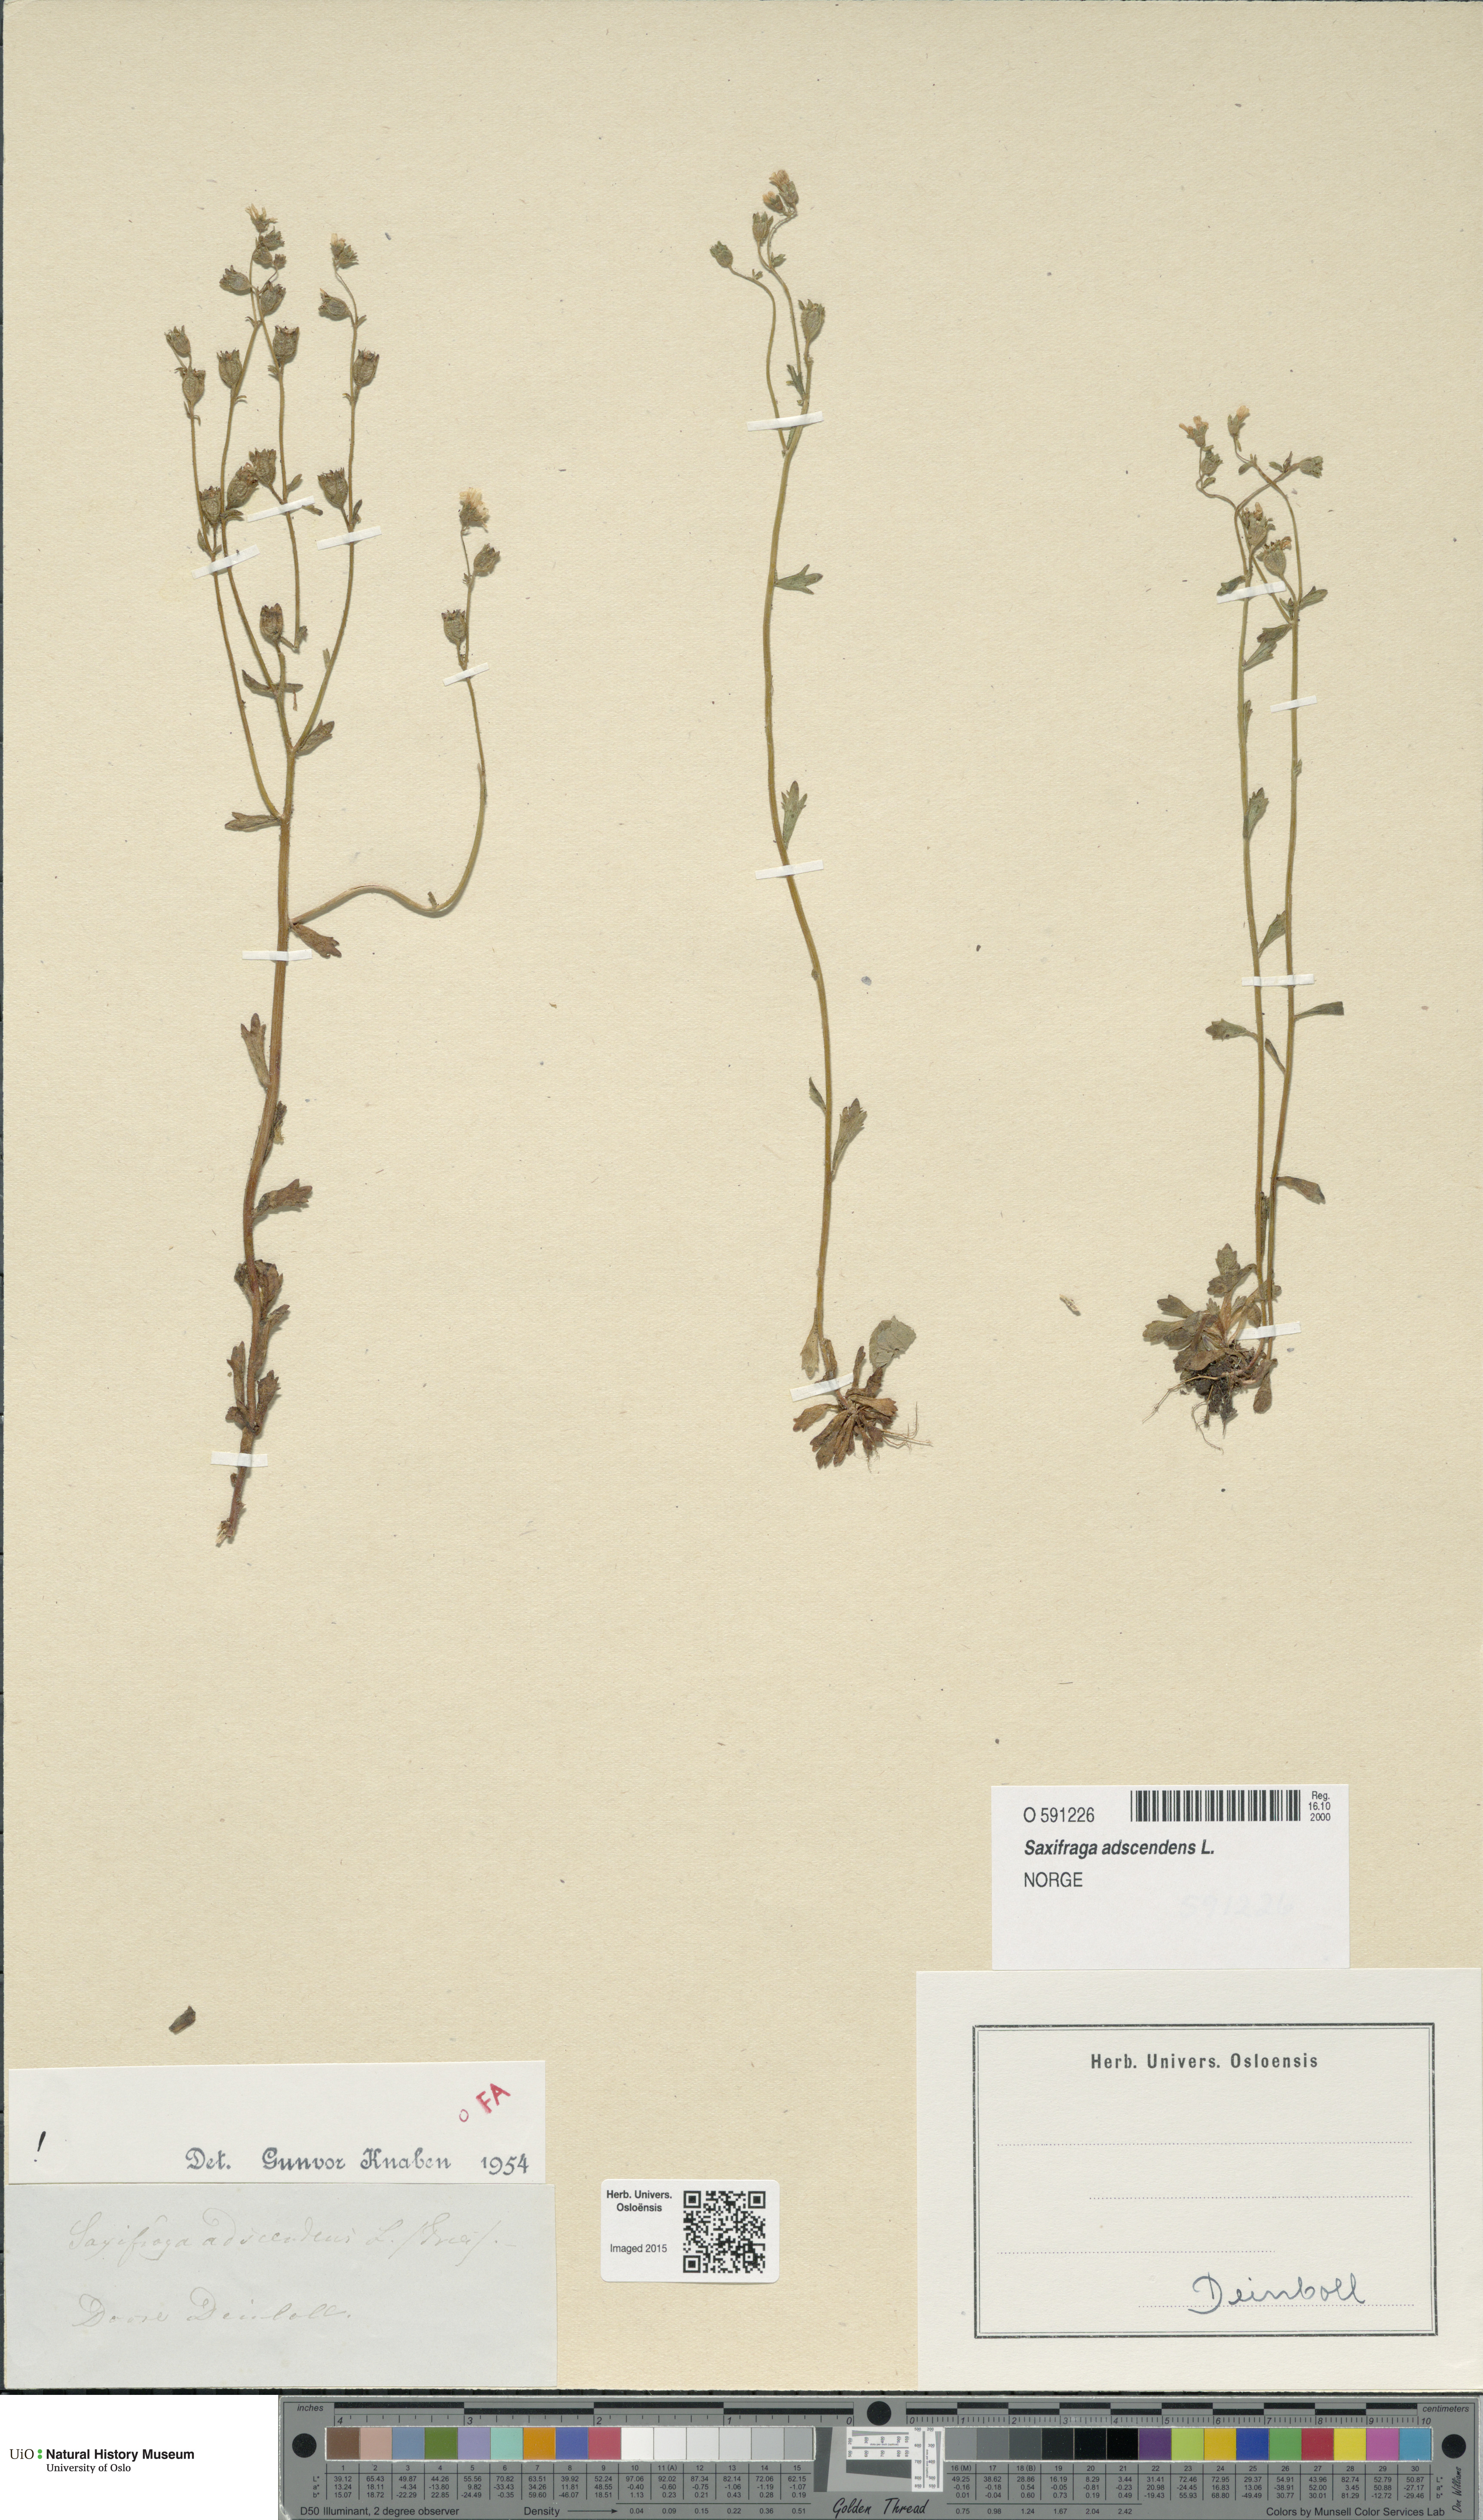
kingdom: Plantae
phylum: Tracheophyta
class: Magnoliopsida
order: Saxifragales
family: Saxifragaceae
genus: Saxifraga
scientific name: Saxifraga adscendens
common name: Ascending saxifrage
